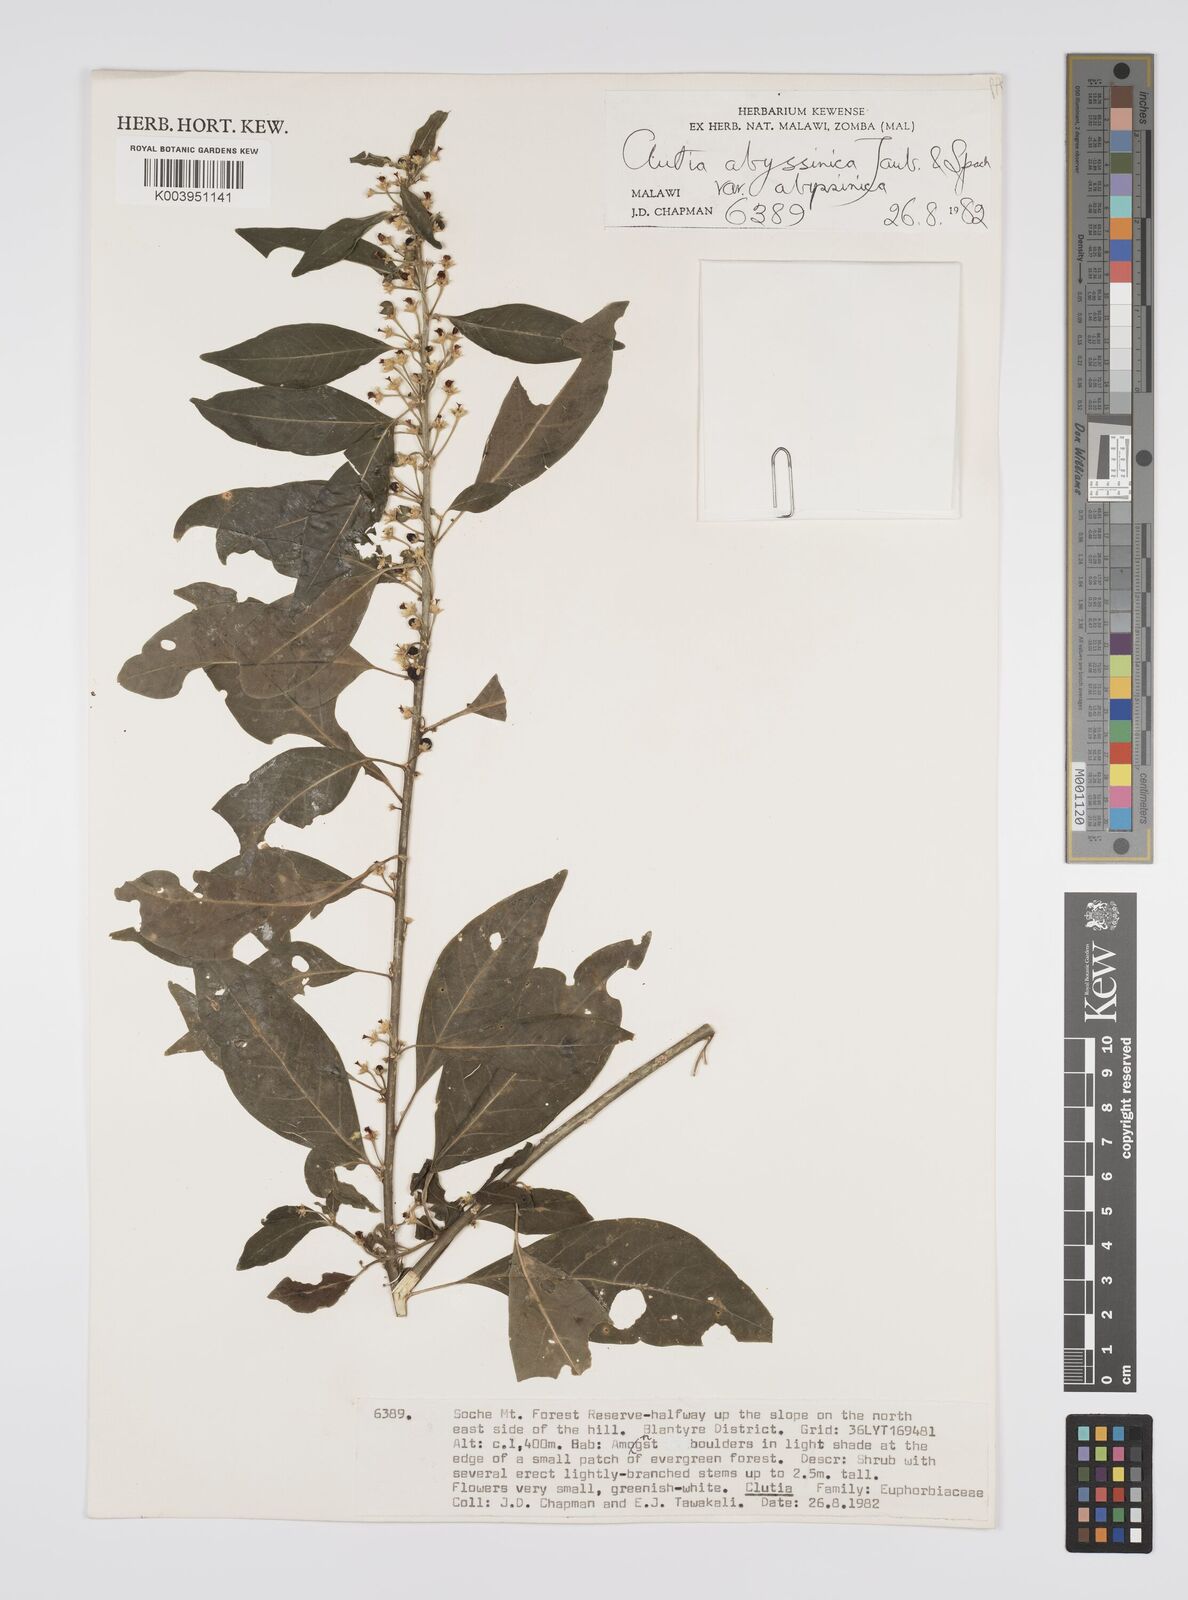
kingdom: Plantae
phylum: Tracheophyta
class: Magnoliopsida
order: Malpighiales
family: Peraceae
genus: Clutia
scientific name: Clutia abyssinica
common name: Large lightning bush
